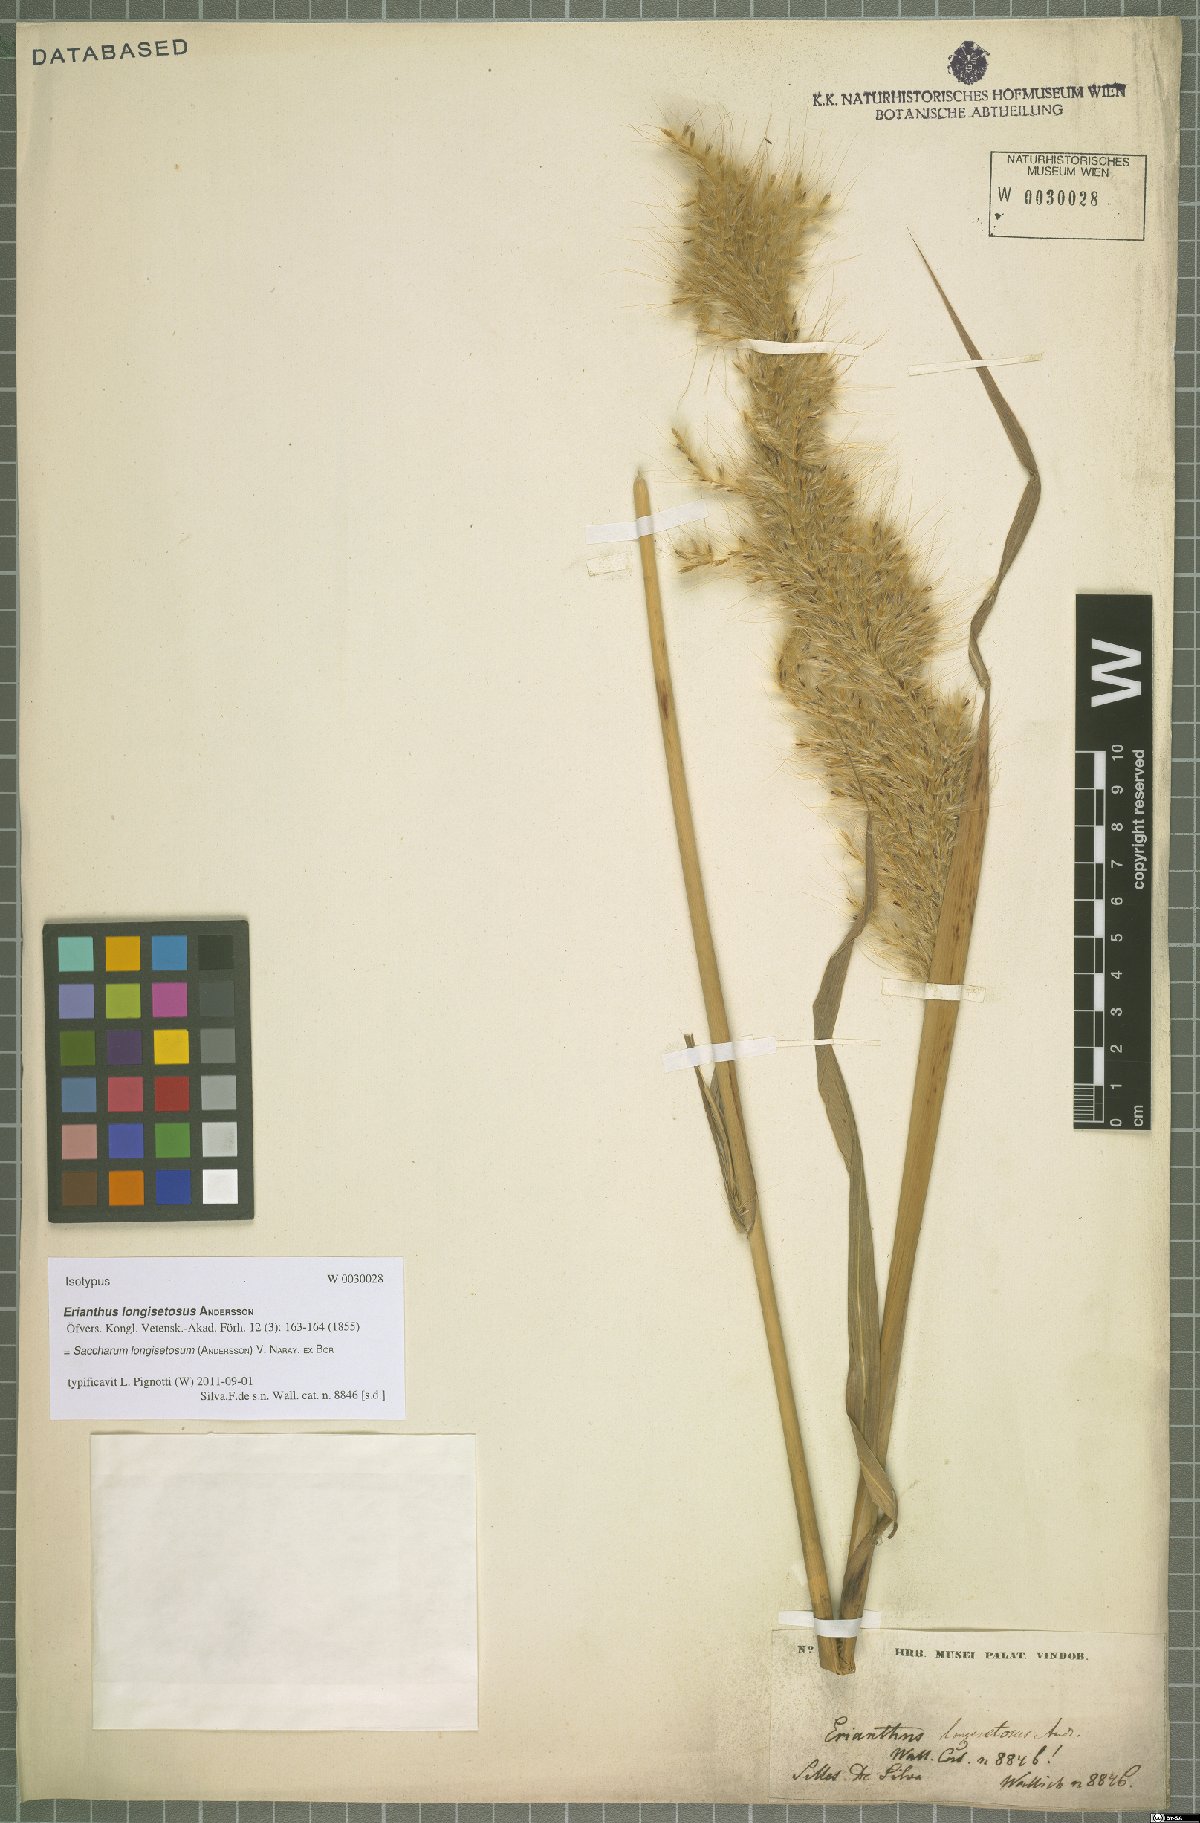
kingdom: Plantae
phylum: Tracheophyta
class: Liliopsida
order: Poales
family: Poaceae
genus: Saccharum
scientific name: Saccharum longisetosum
